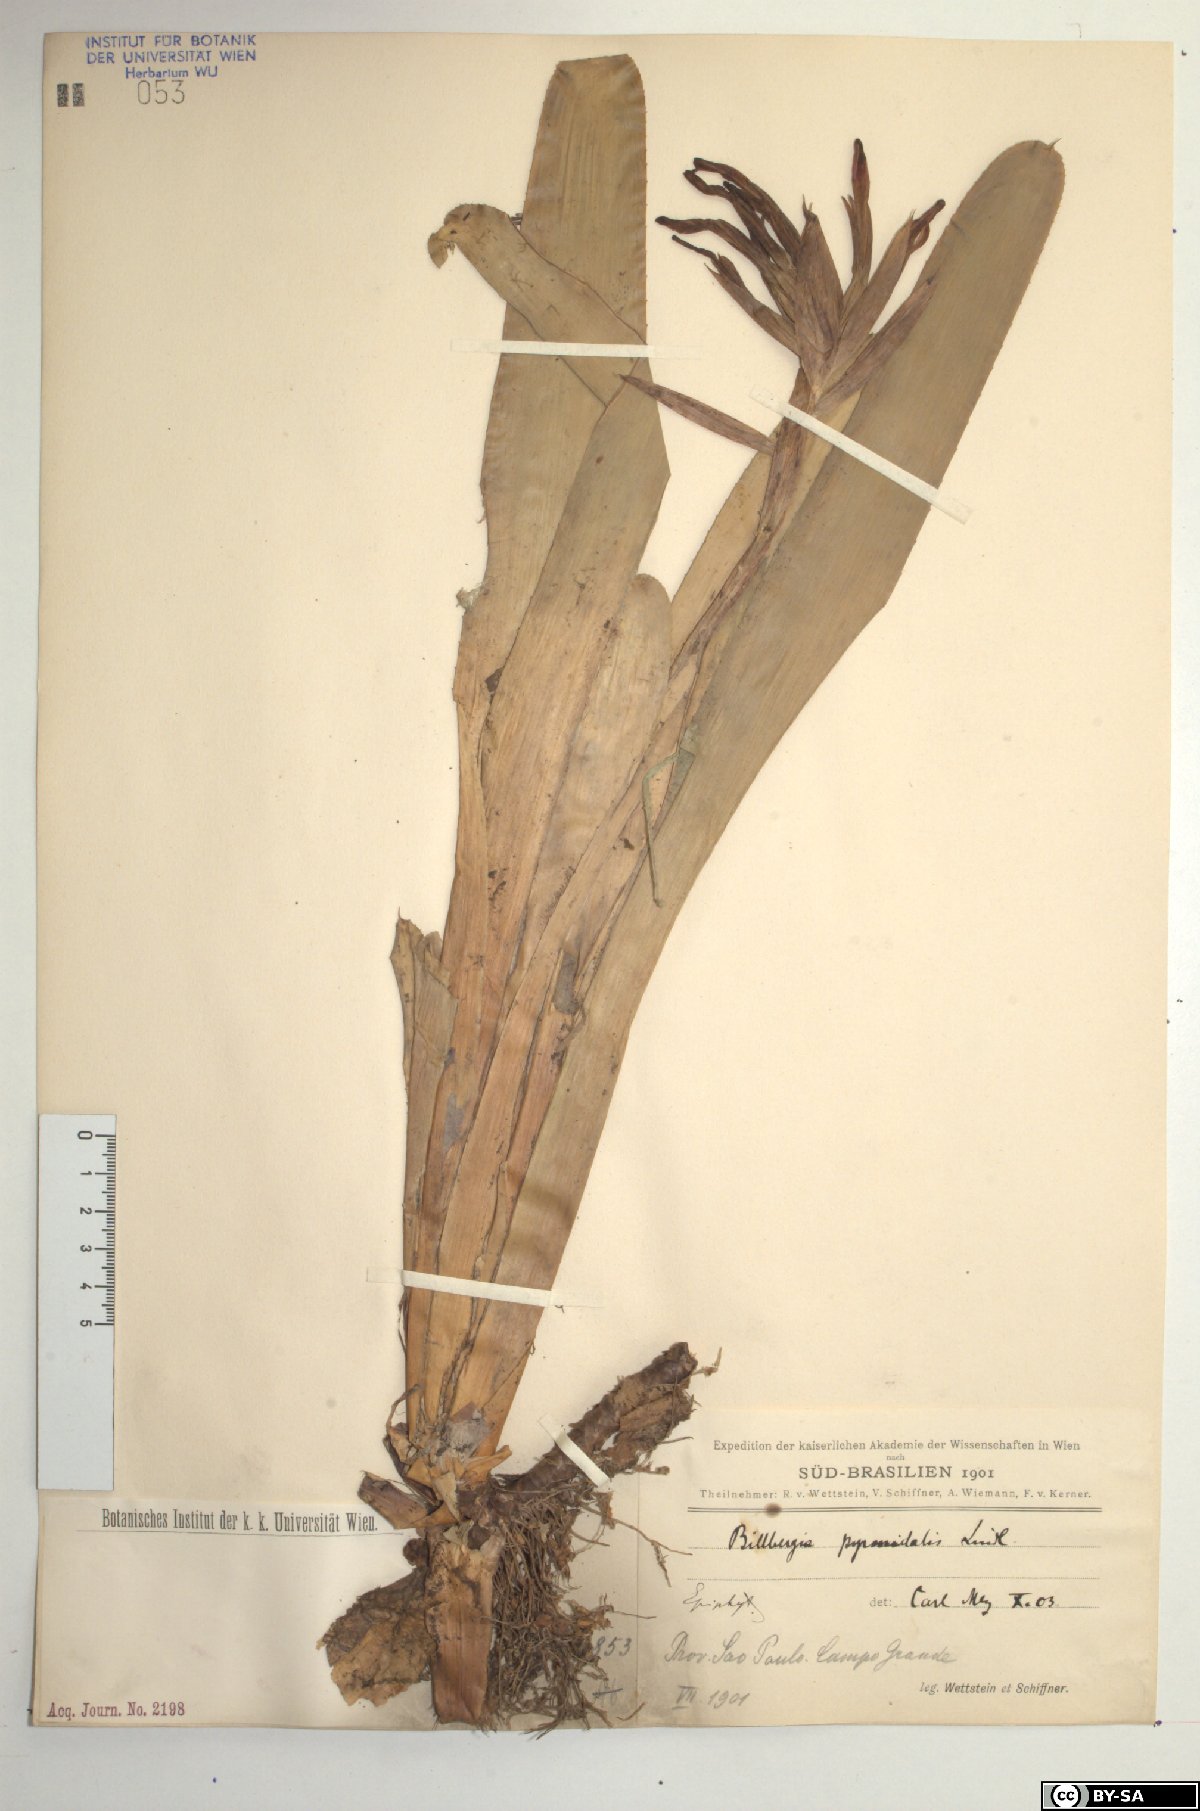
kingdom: Plantae
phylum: Tracheophyta
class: Liliopsida
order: Poales
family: Bromeliaceae
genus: Billbergia
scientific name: Billbergia pyramidalis
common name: Foolproofplant
